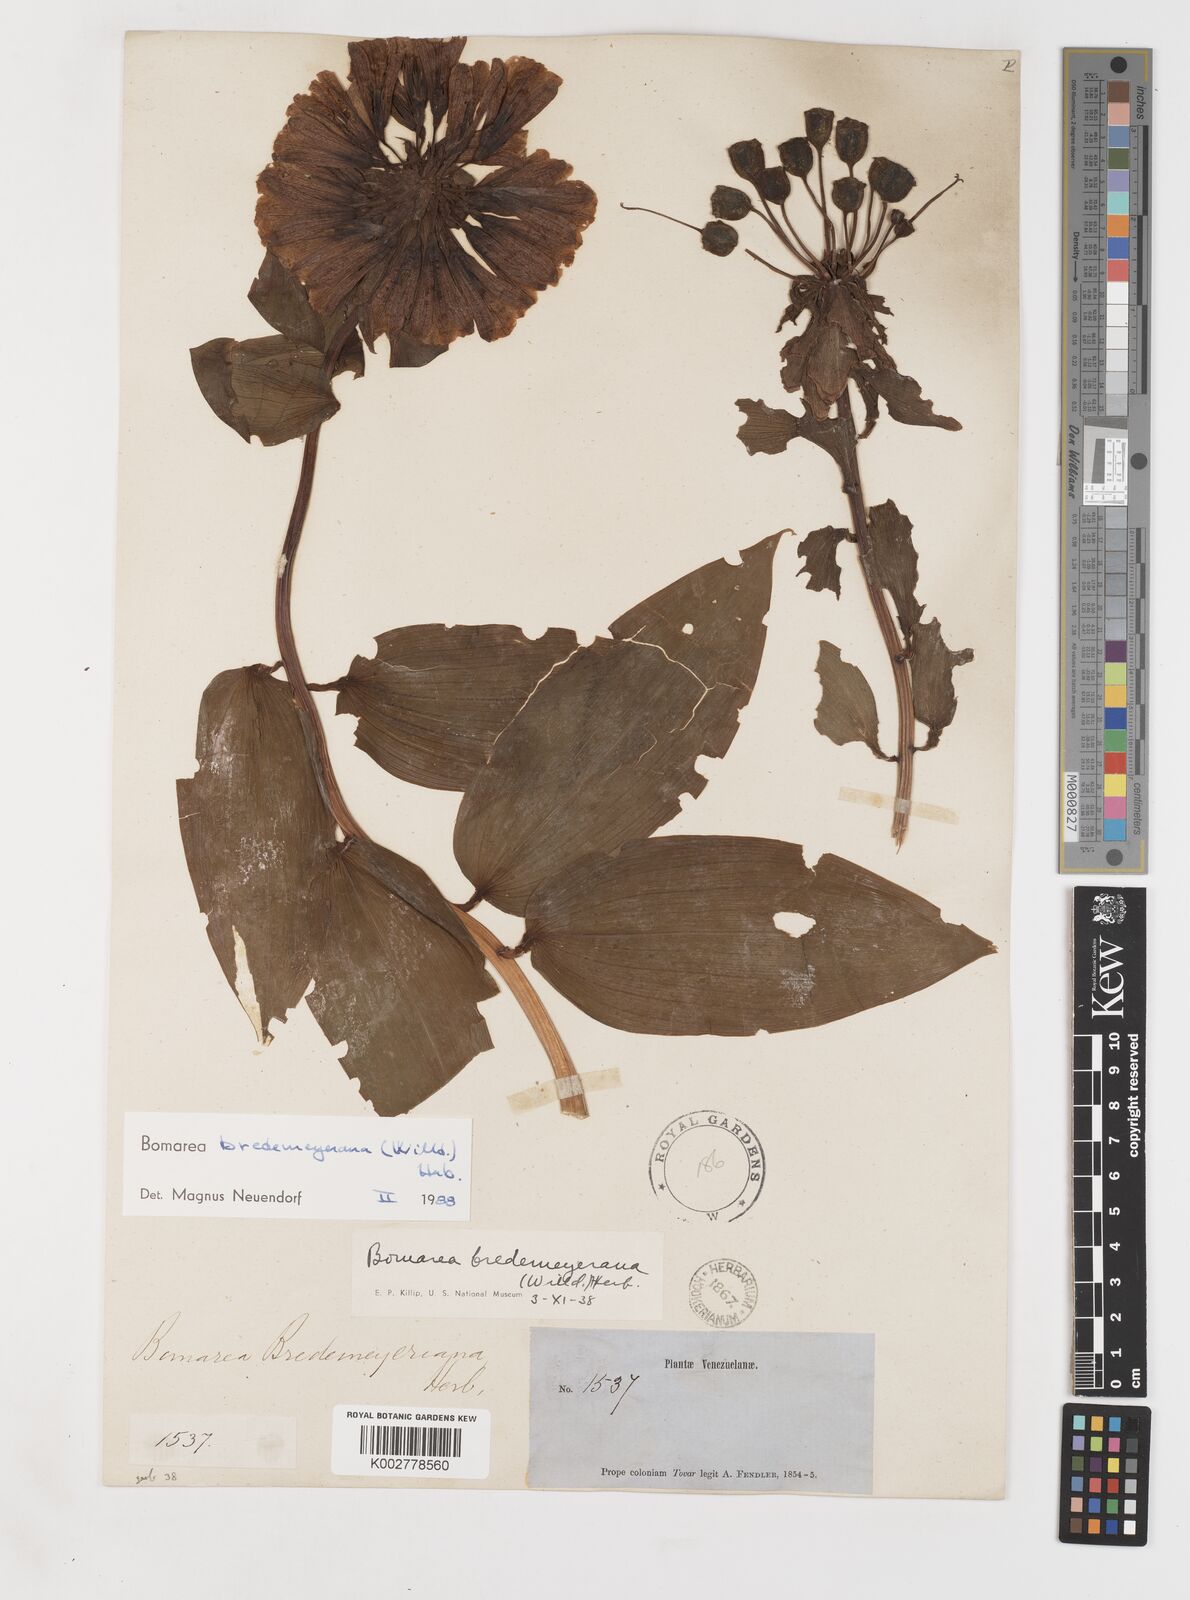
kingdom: Plantae
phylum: Tracheophyta
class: Liliopsida
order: Liliales
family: Alstroemeriaceae
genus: Bomarea
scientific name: Bomarea multiflora
